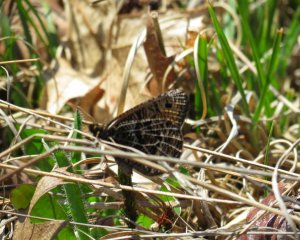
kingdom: Animalia
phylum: Arthropoda
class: Insecta
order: Lepidoptera
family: Nymphalidae
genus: Oeneis
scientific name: Oeneis chryxus
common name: Chryxus Arctic
